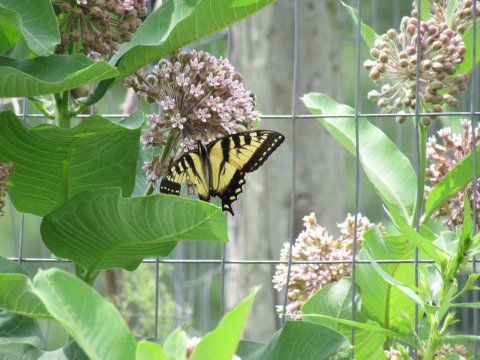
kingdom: Animalia
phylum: Arthropoda
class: Insecta
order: Lepidoptera
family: Papilionidae
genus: Pterourus
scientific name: Pterourus
